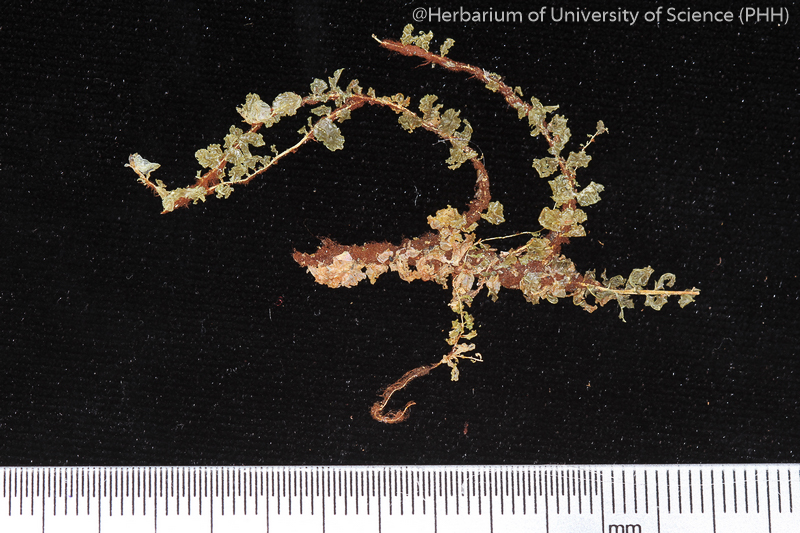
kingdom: Plantae
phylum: Bryophyta
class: Bryopsida
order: Bryales
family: Mniaceae
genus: Orthomnion
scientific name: Orthomnion dilatatum
